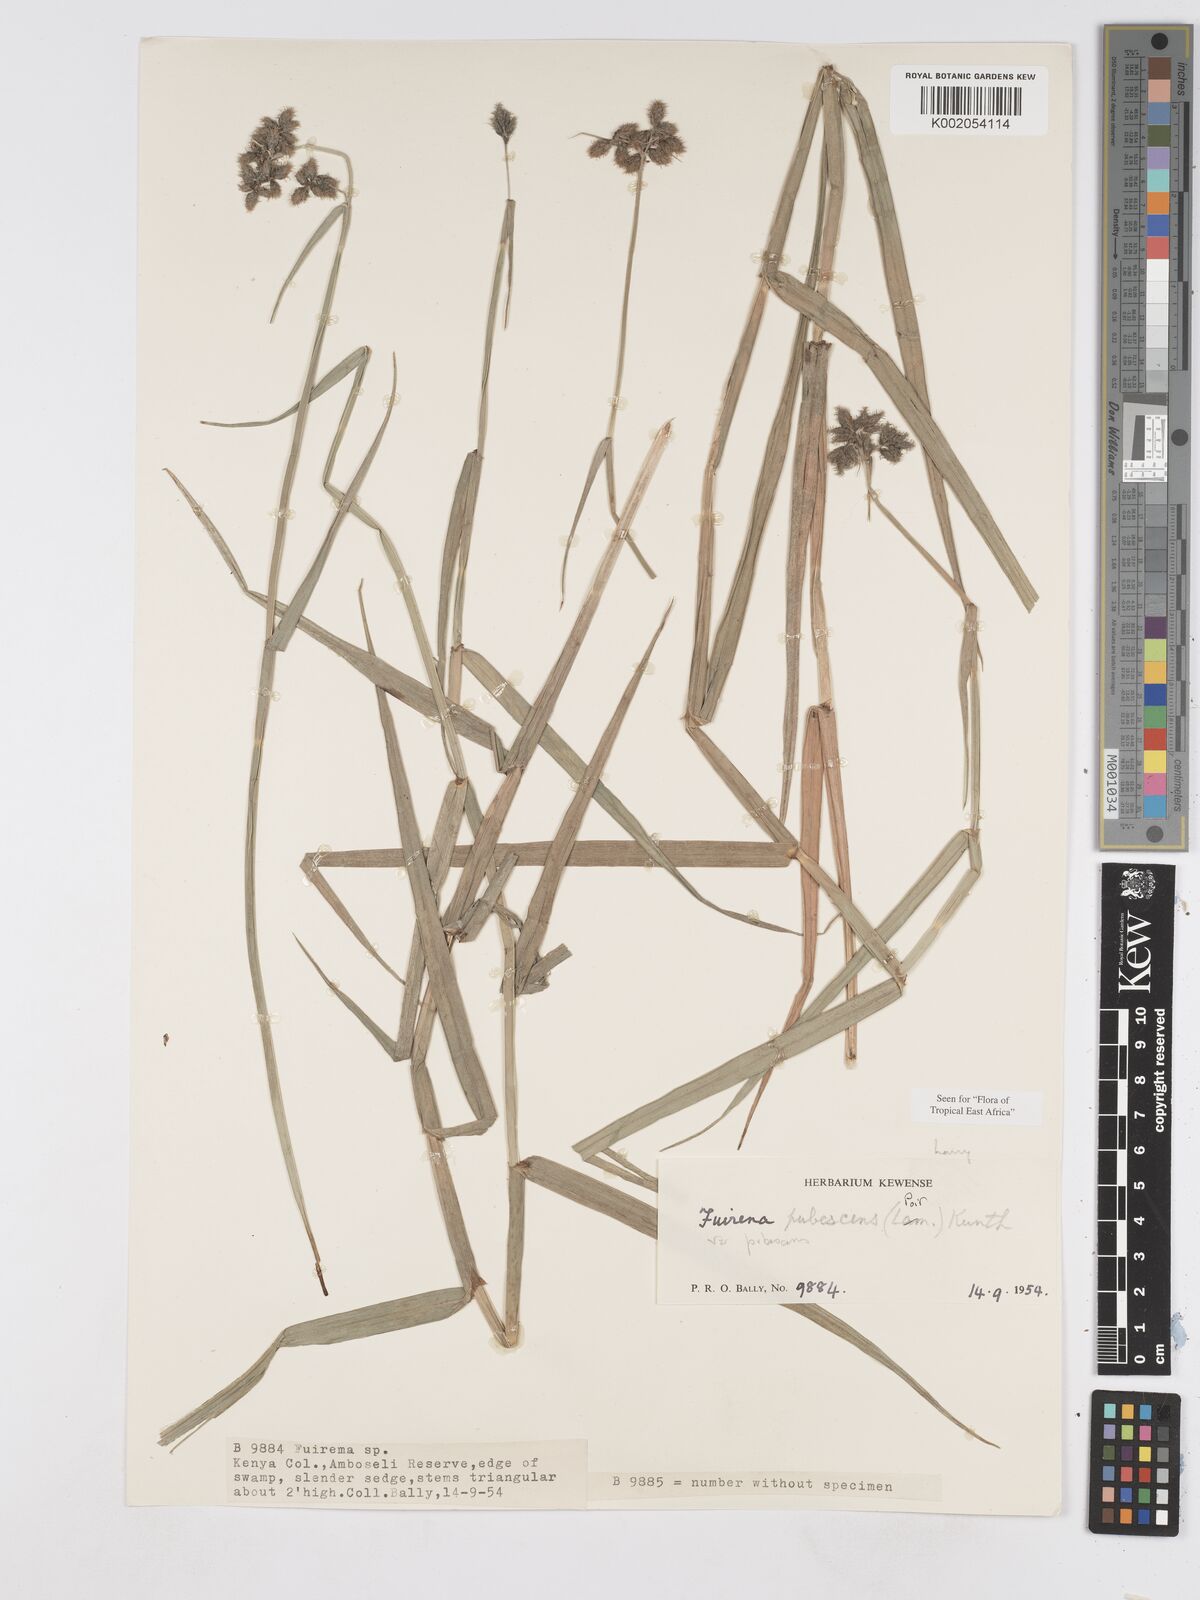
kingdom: Plantae
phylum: Tracheophyta
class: Liliopsida
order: Poales
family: Cyperaceae
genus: Fuirena
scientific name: Fuirena pubescens
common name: Hairy sedge
